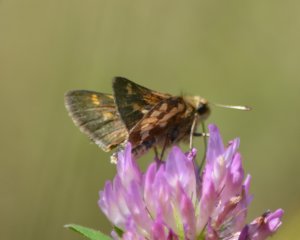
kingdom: Animalia
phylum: Arthropoda
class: Insecta
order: Lepidoptera
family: Hesperiidae
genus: Polites
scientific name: Polites coras
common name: Peck's Skipper
